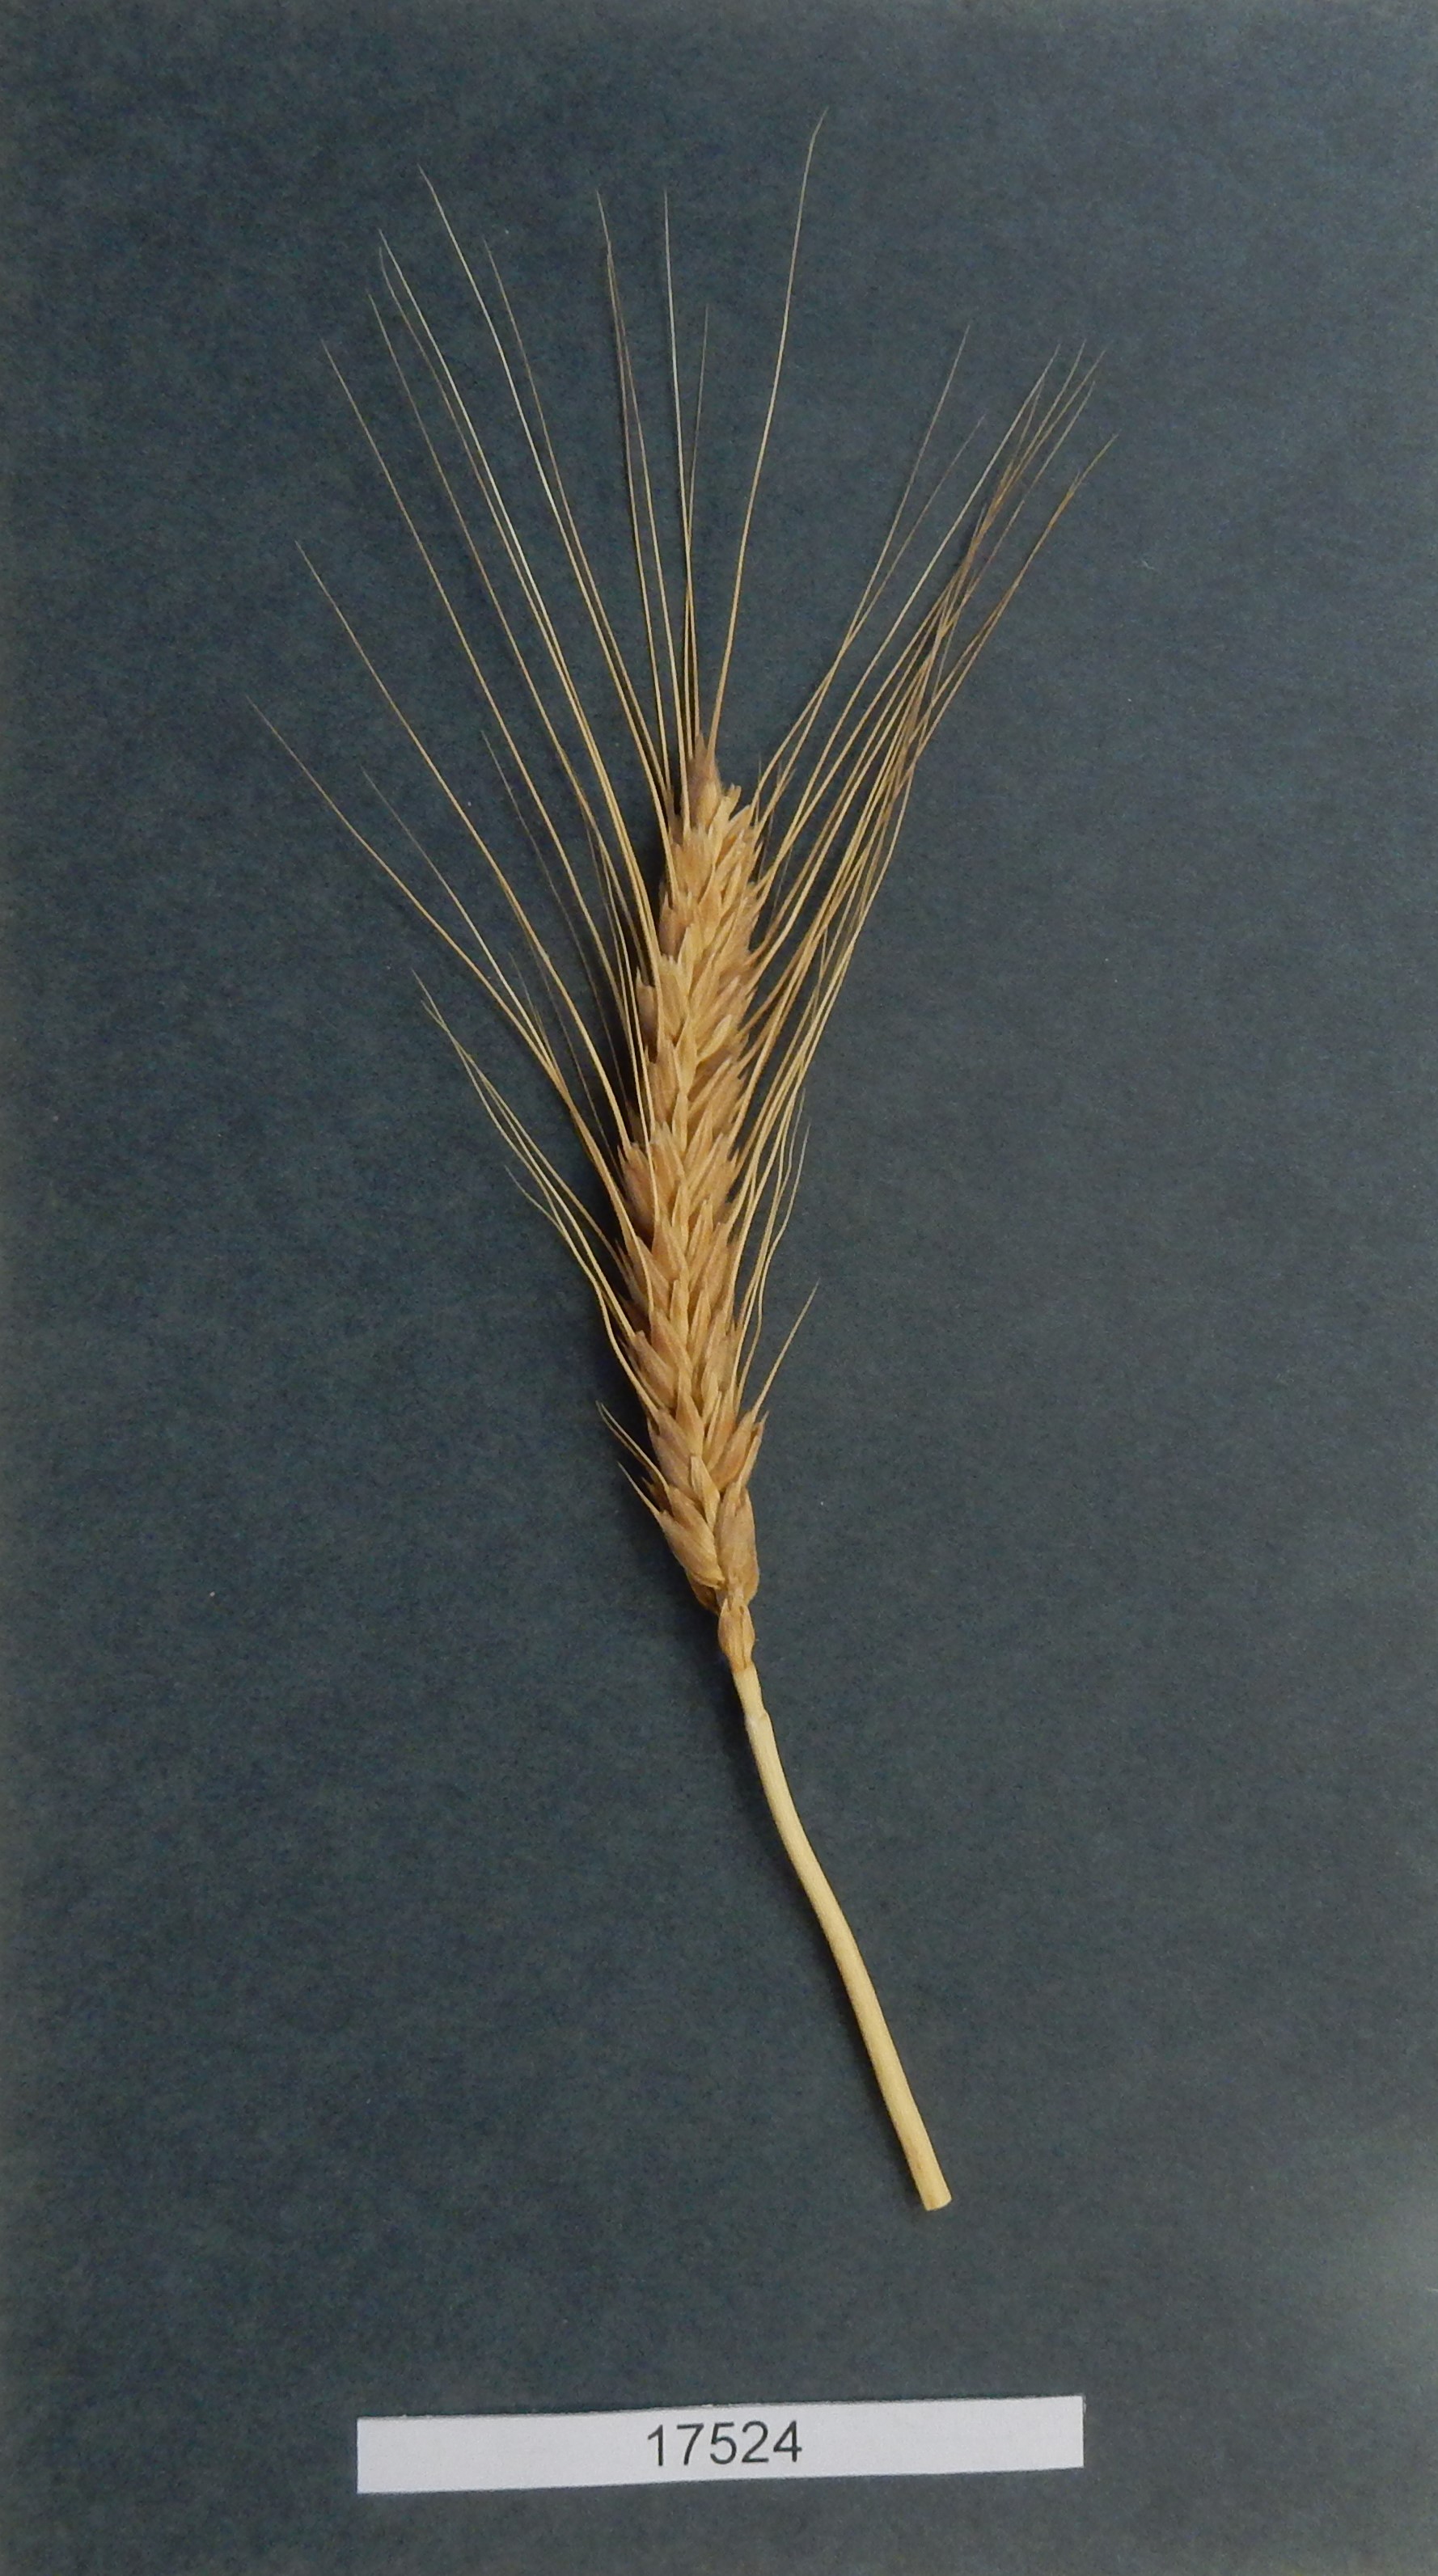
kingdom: Plantae
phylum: Tracheophyta
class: Liliopsida
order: Poales
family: Poaceae
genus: Triticum
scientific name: Triticum
